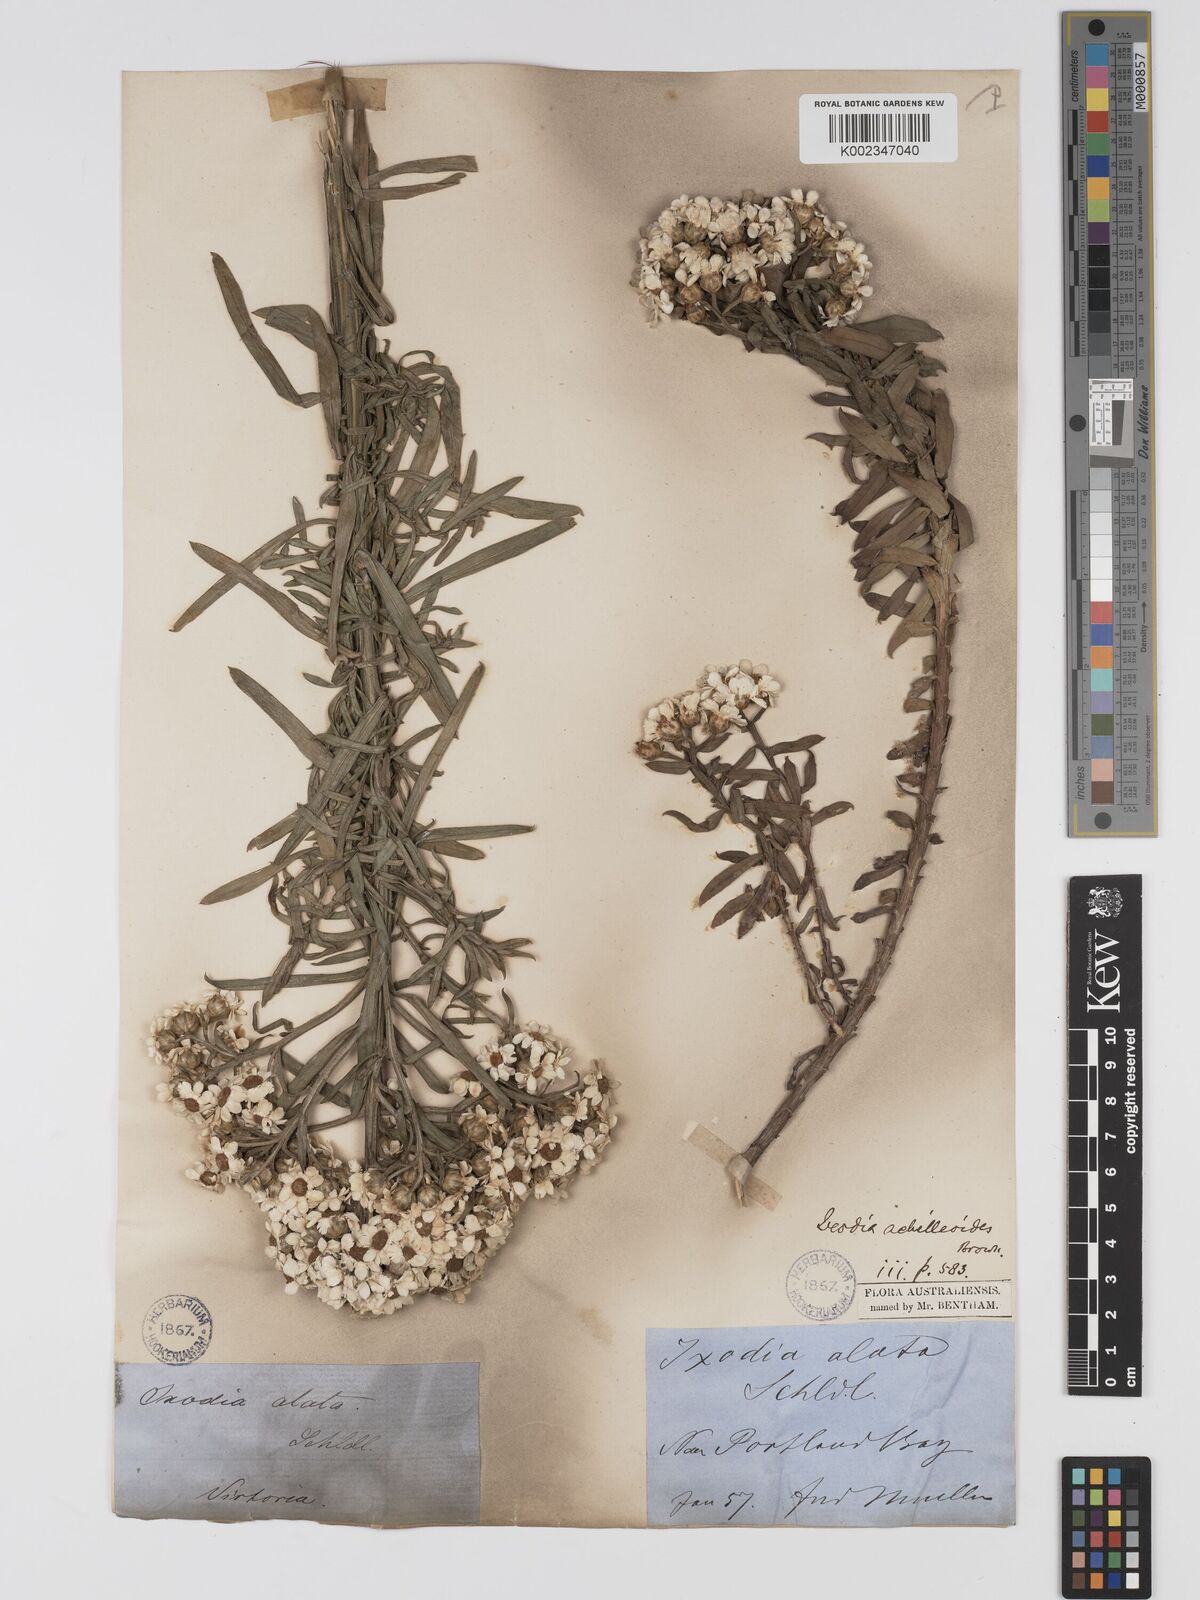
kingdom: Plantae
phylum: Tracheophyta
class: Magnoliopsida
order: Asterales
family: Asteraceae
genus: Ixodia
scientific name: Ixodia achilleoides
